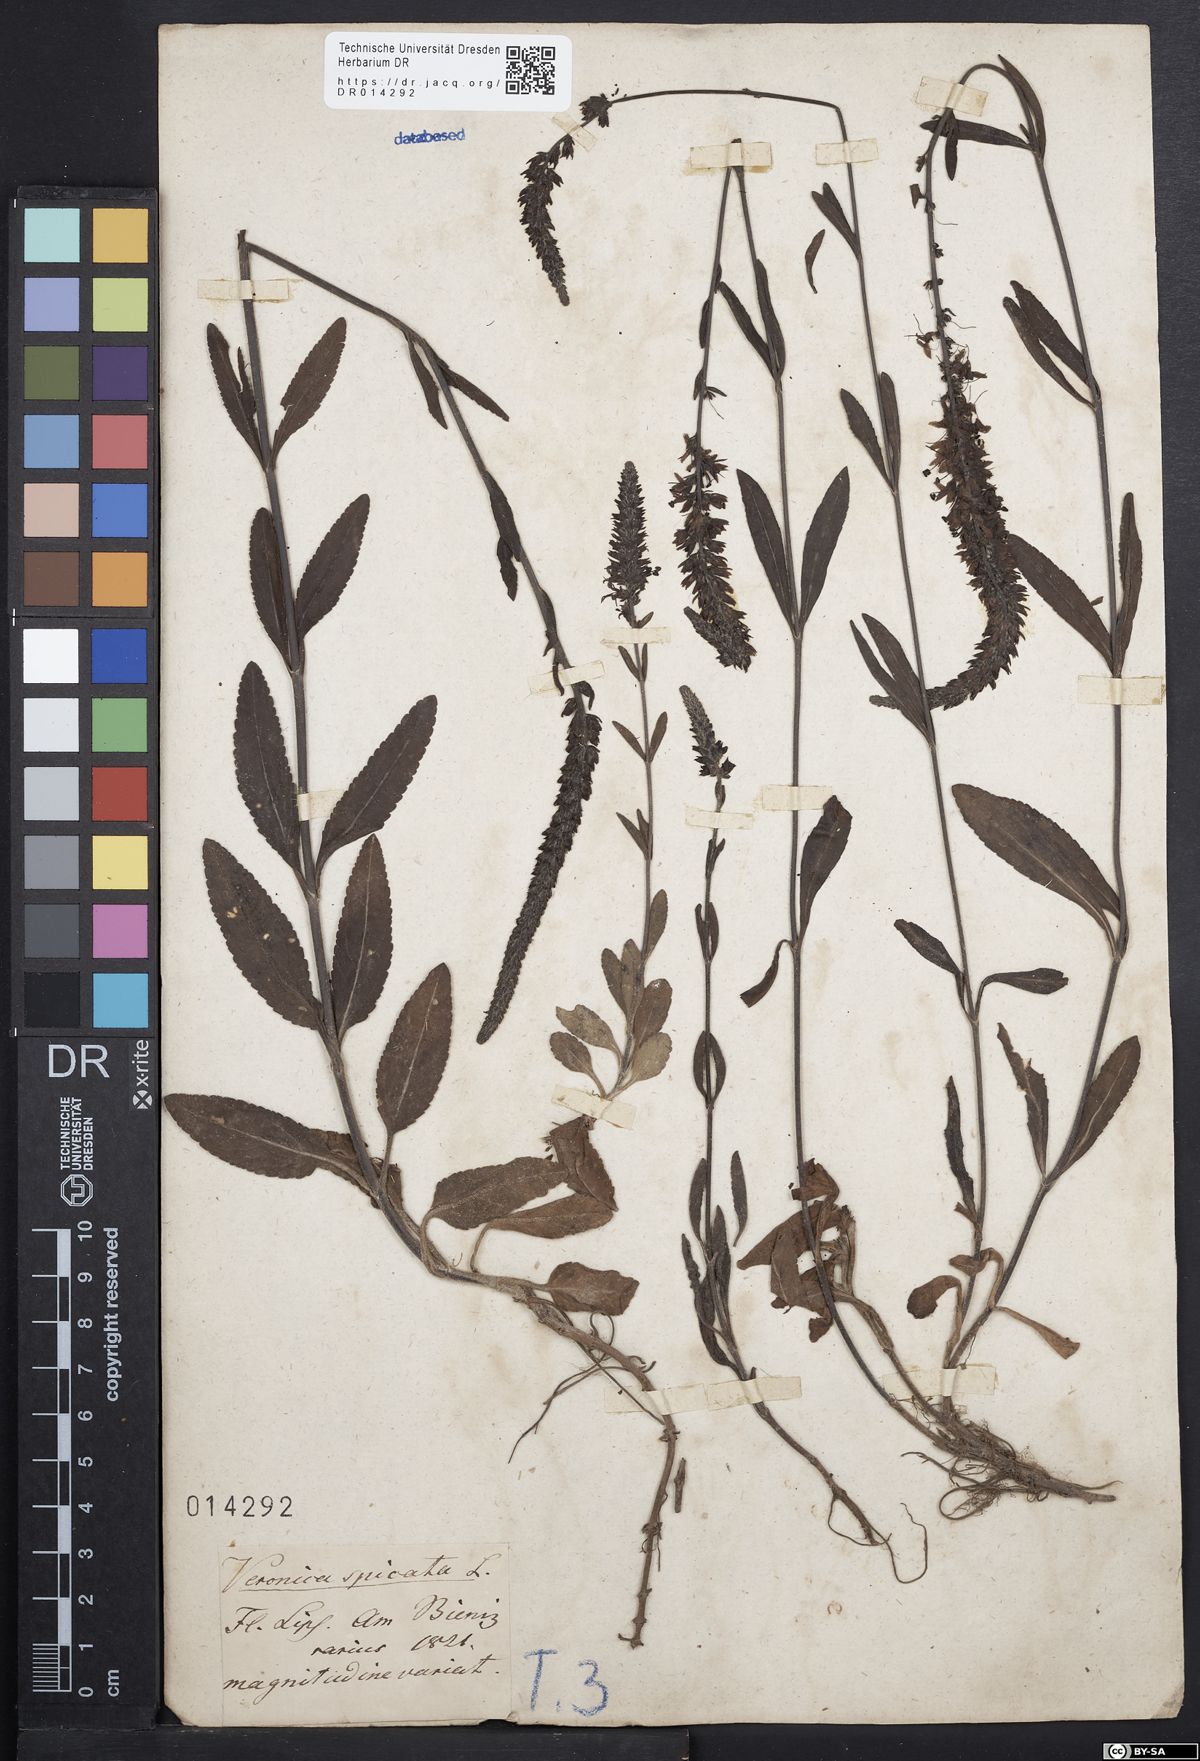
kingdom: Plantae
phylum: Tracheophyta
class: Magnoliopsida
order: Lamiales
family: Plantaginaceae
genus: Veronica
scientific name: Veronica spicata
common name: Spiked speedwell
